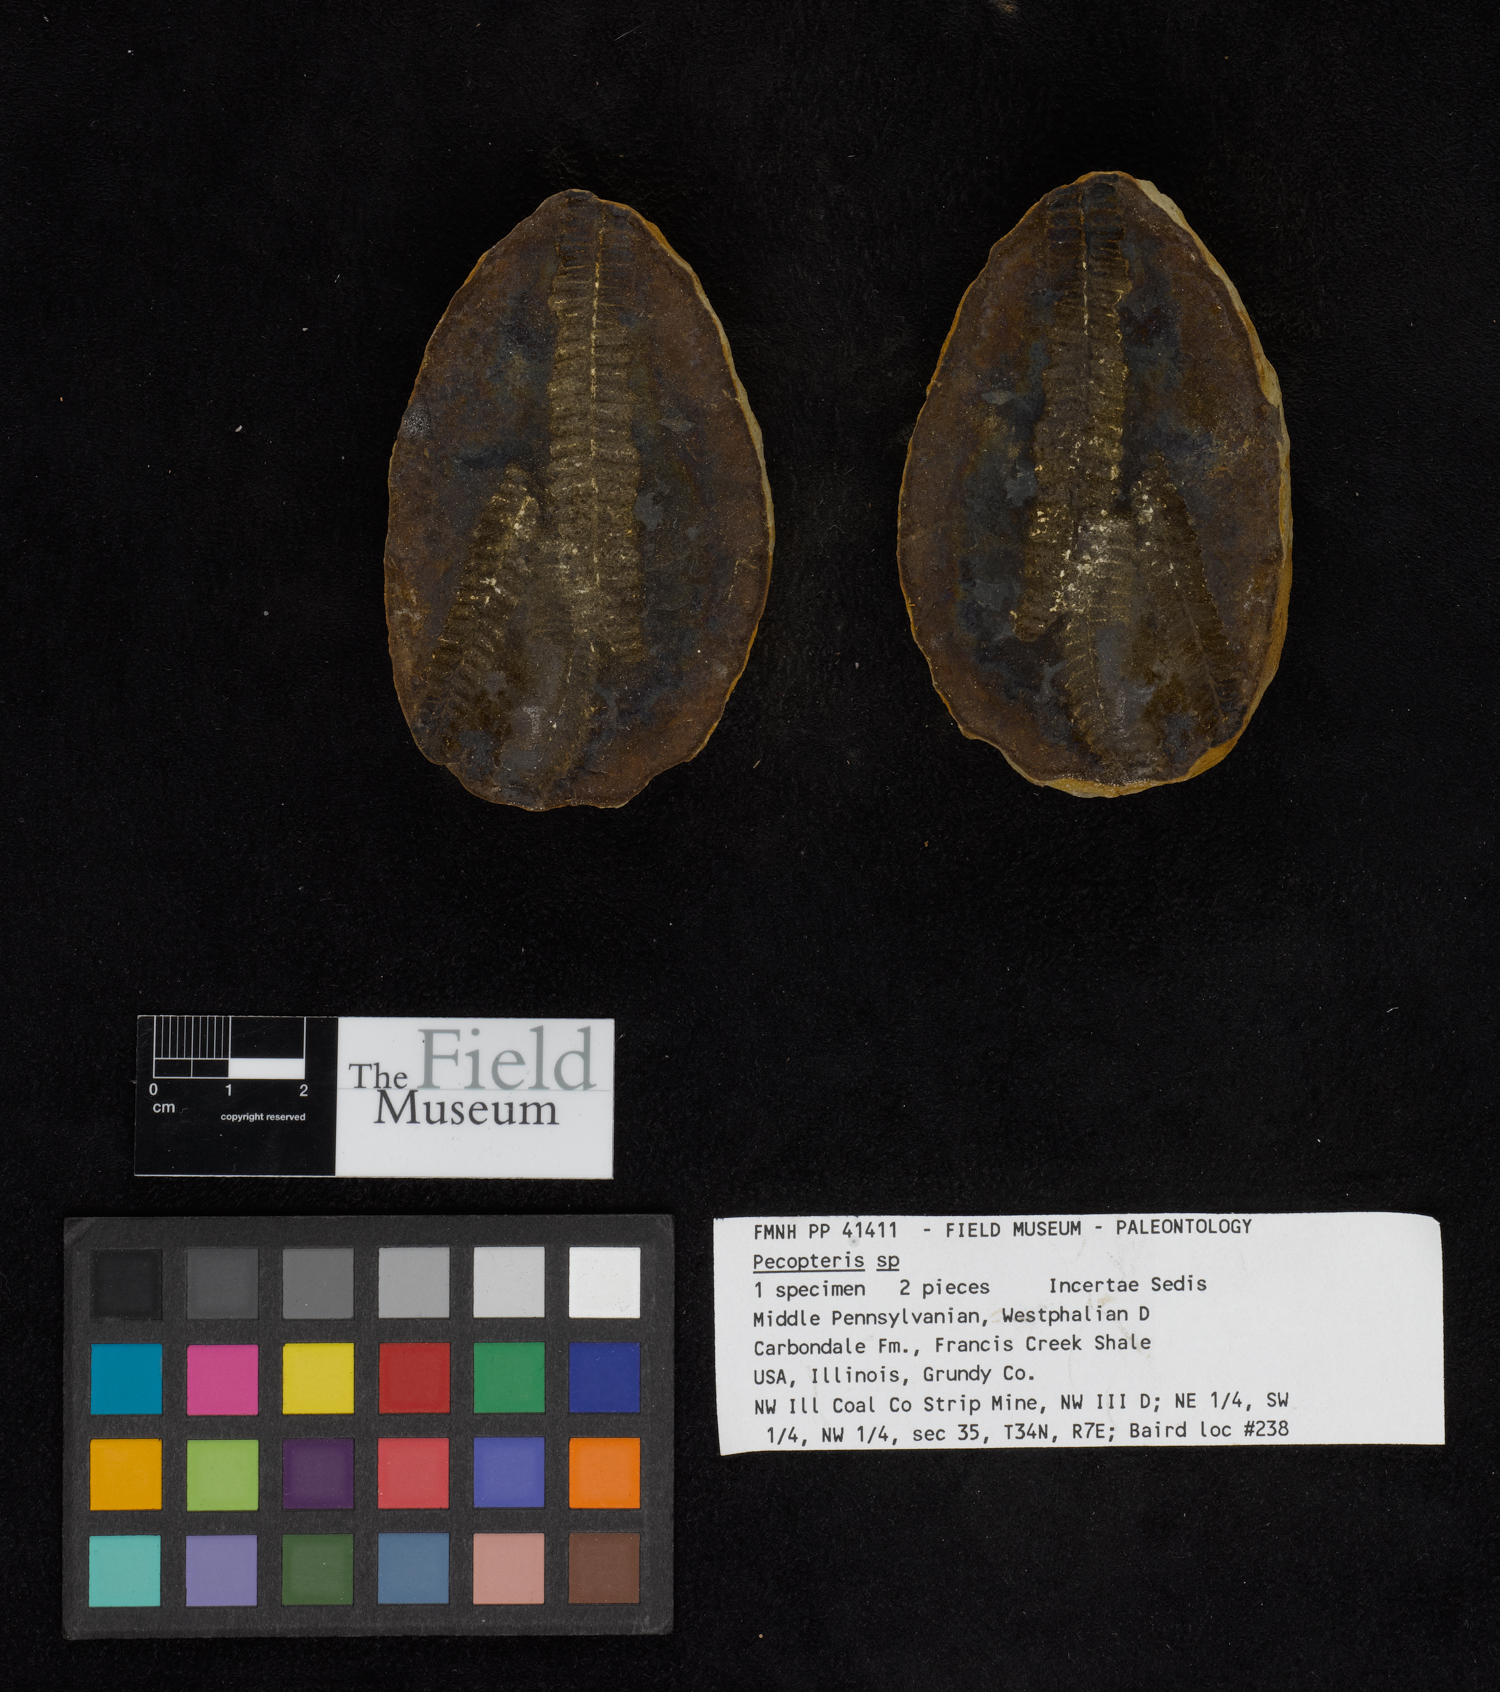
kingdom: Plantae
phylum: Tracheophyta
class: Polypodiopsida
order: Marattiales
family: Asterothecaceae
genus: Pecopteris
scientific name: Pecopteris
